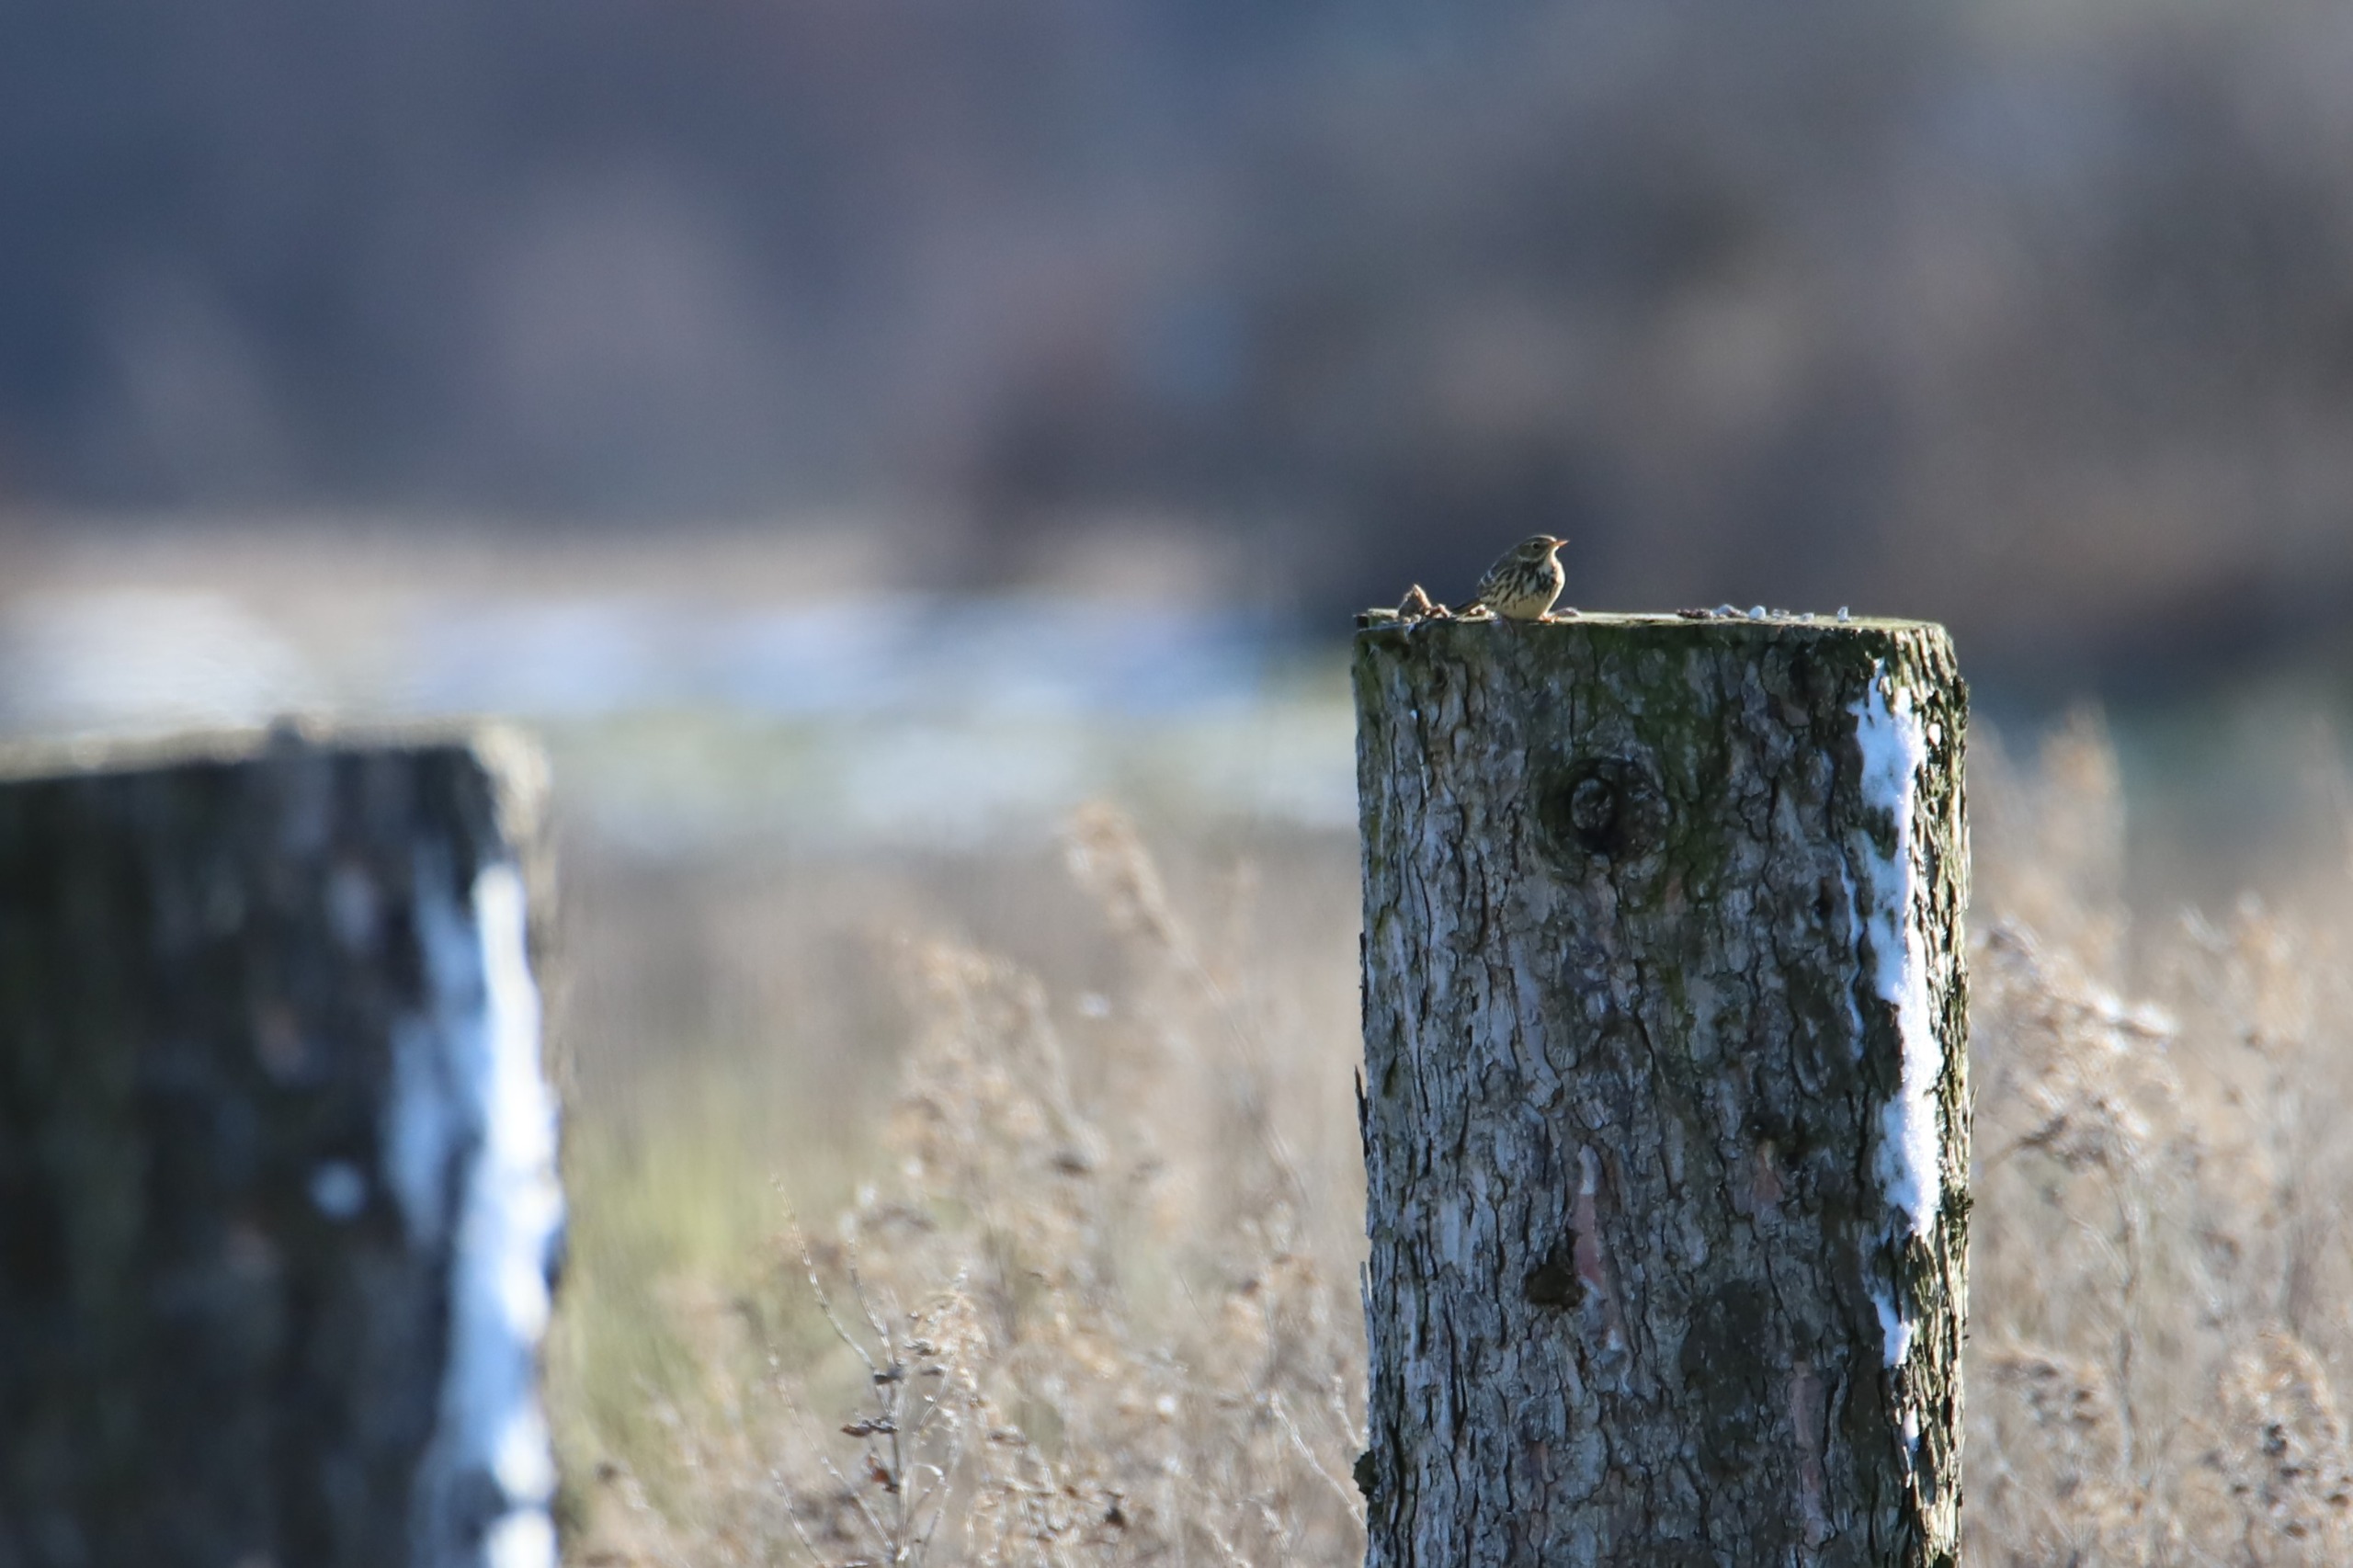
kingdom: Animalia
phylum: Chordata
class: Aves
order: Passeriformes
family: Motacillidae
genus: Anthus
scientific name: Anthus pratensis
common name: Engpiber
